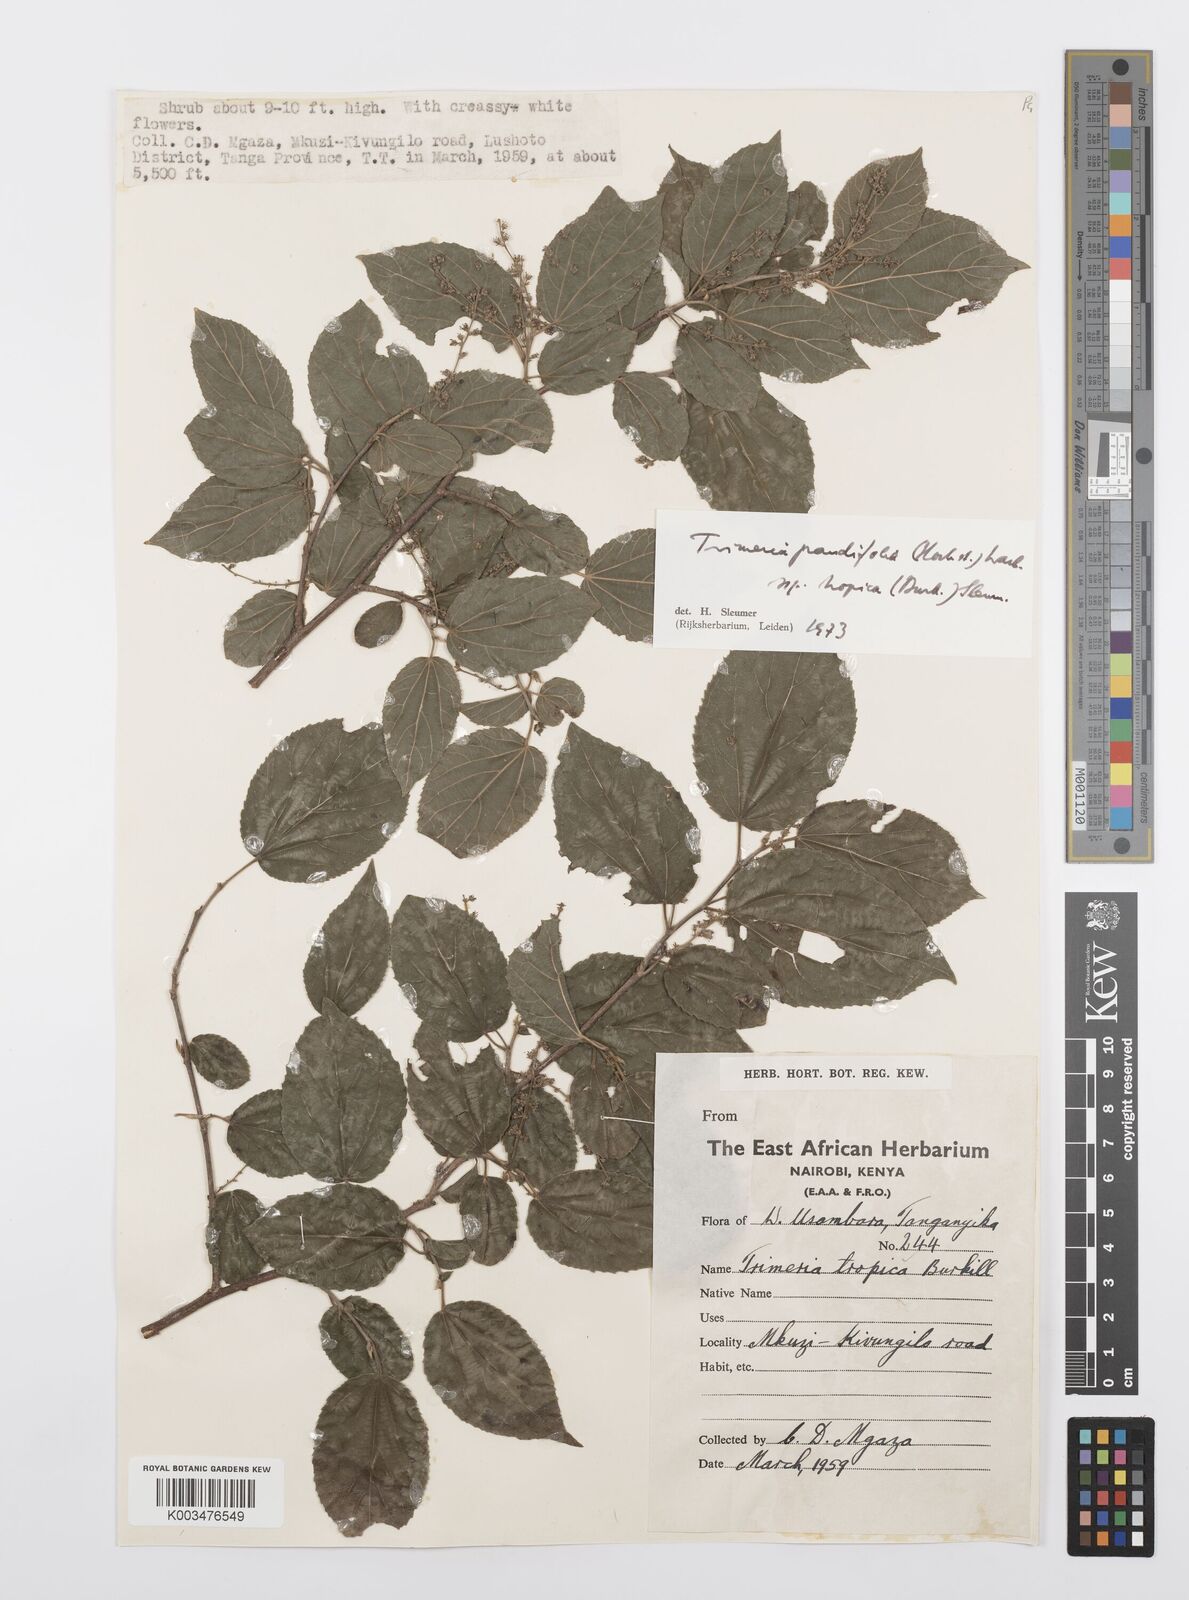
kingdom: Plantae
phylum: Tracheophyta
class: Magnoliopsida
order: Malpighiales
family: Salicaceae
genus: Trimeria
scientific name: Trimeria grandifolia
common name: Wild mulberry
